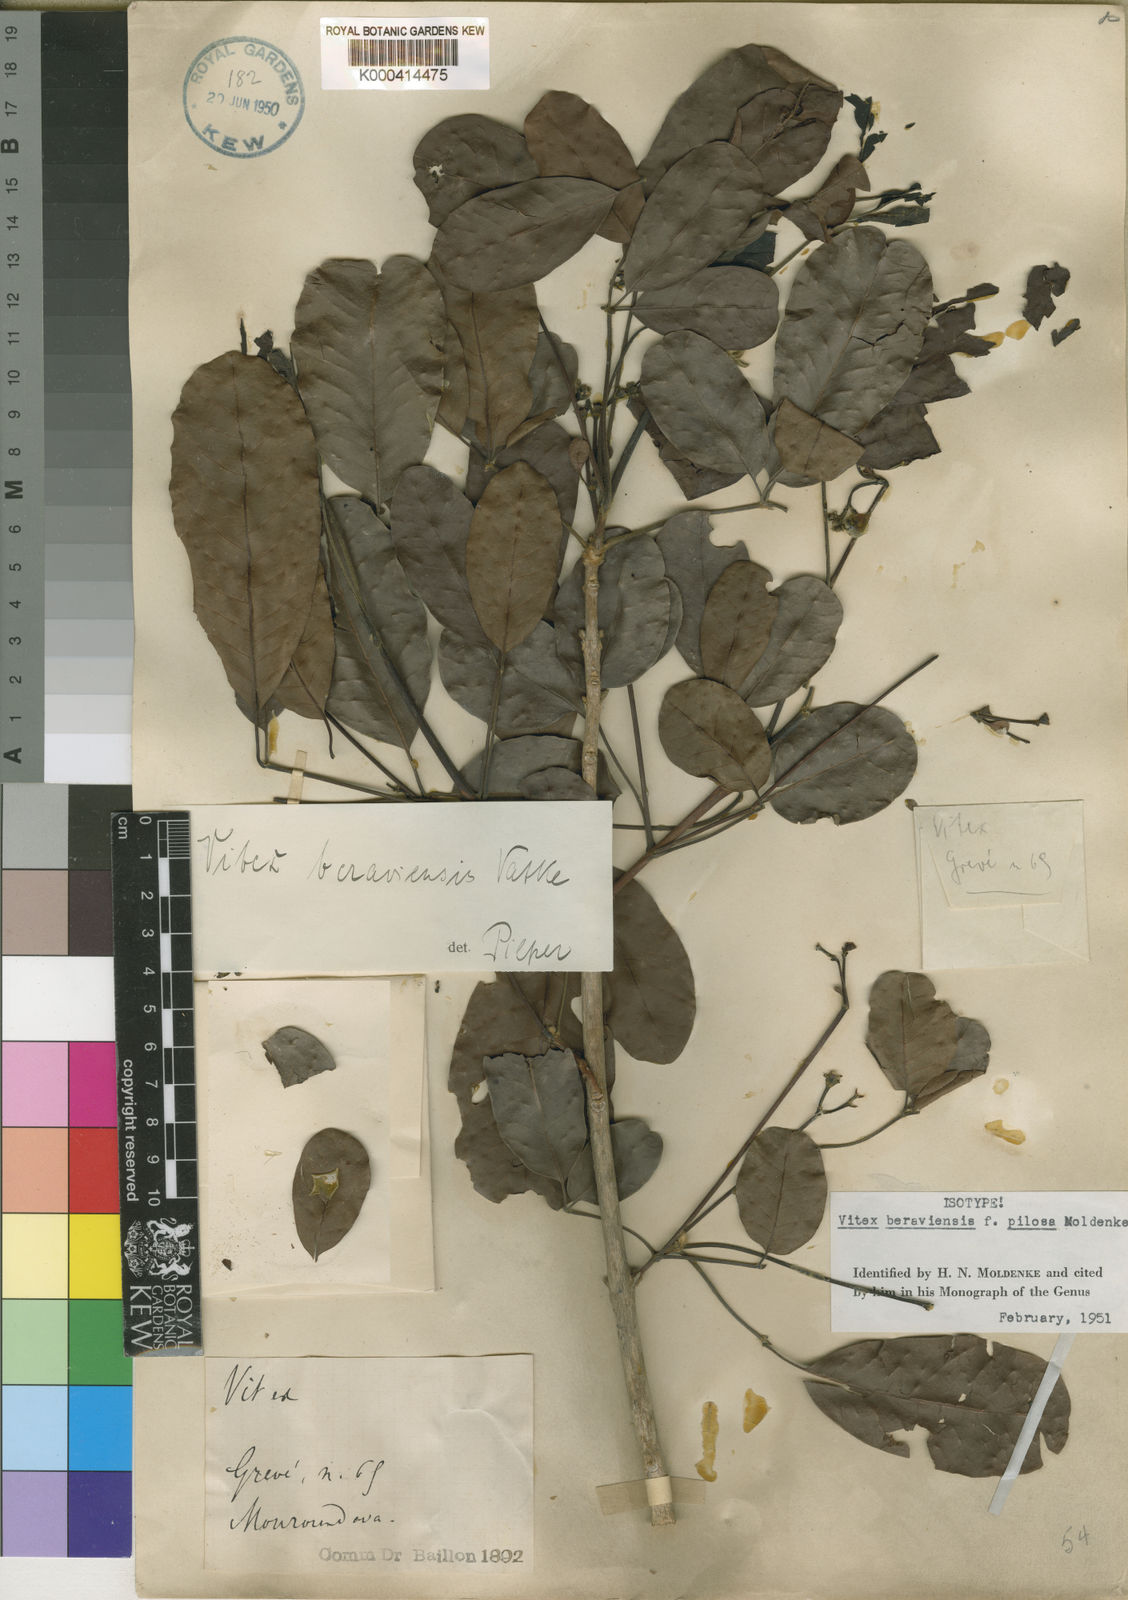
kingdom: Plantae
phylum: Tracheophyta
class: Magnoliopsida
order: Lamiales
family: Lamiaceae
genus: Vitex
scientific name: Vitex beraviensis
